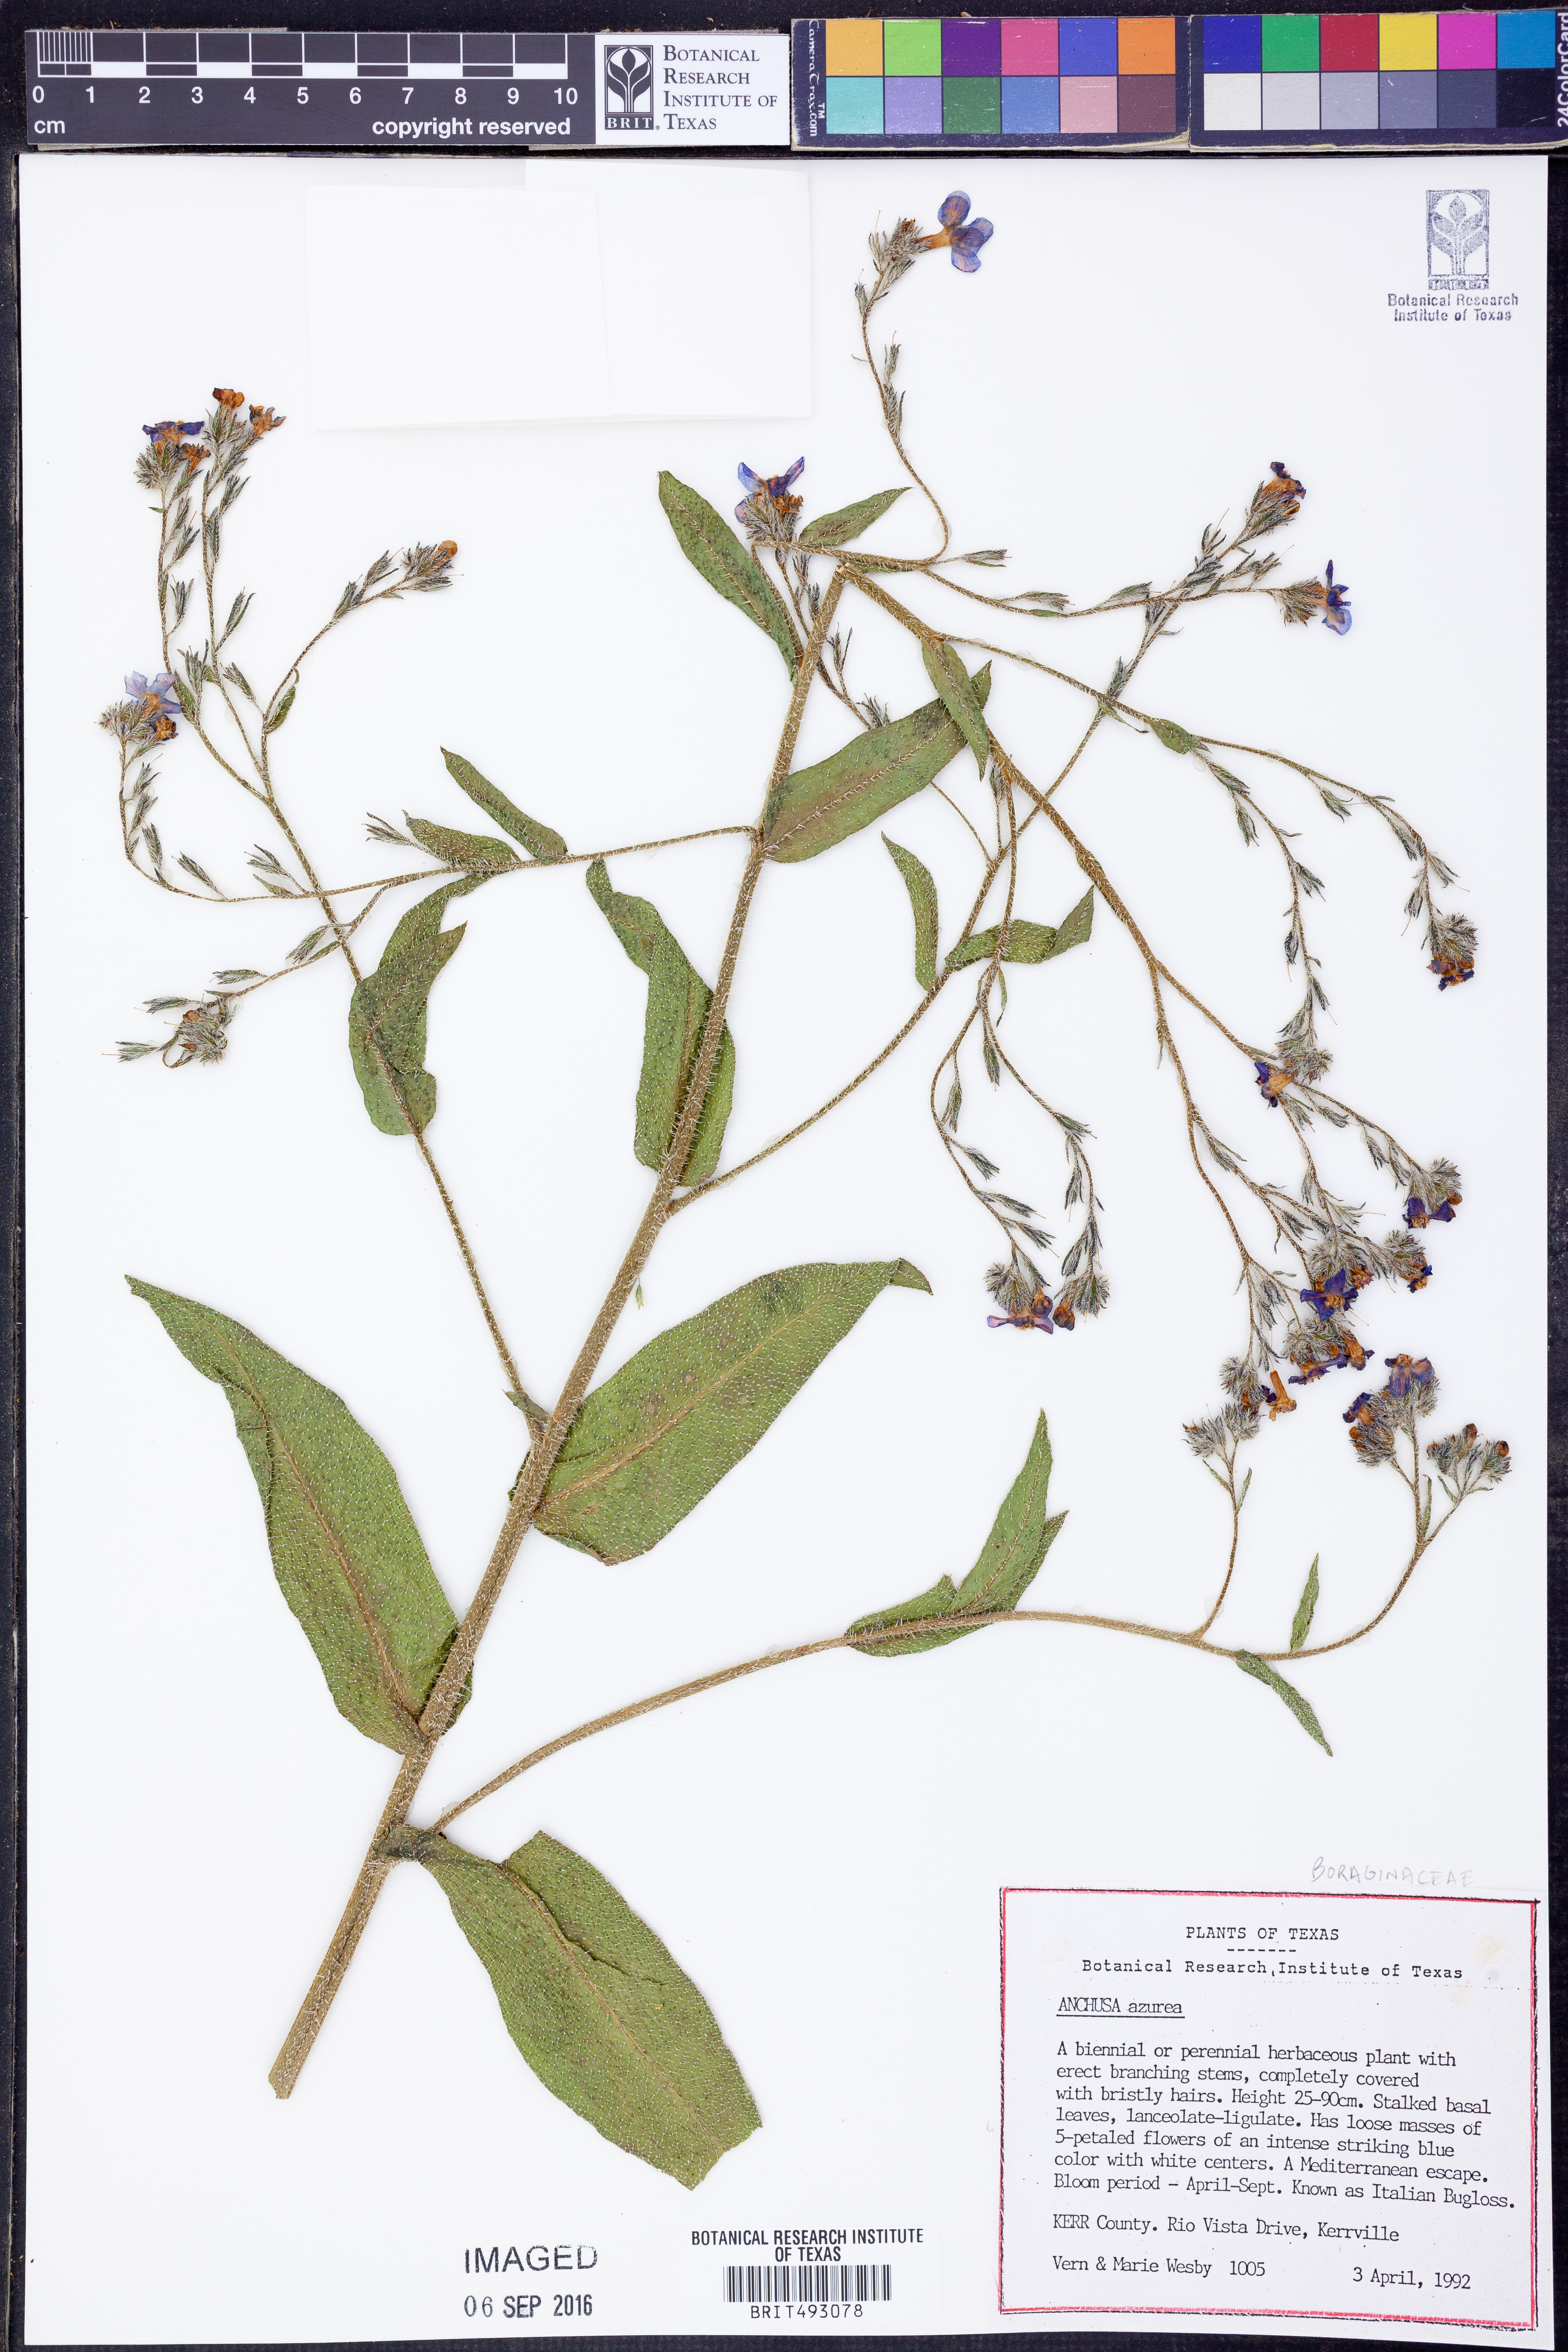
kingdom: Plantae
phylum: Tracheophyta
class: Magnoliopsida
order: Boraginales
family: Boraginaceae
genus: Anchusa
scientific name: Anchusa azurea
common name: Garden anchusa
